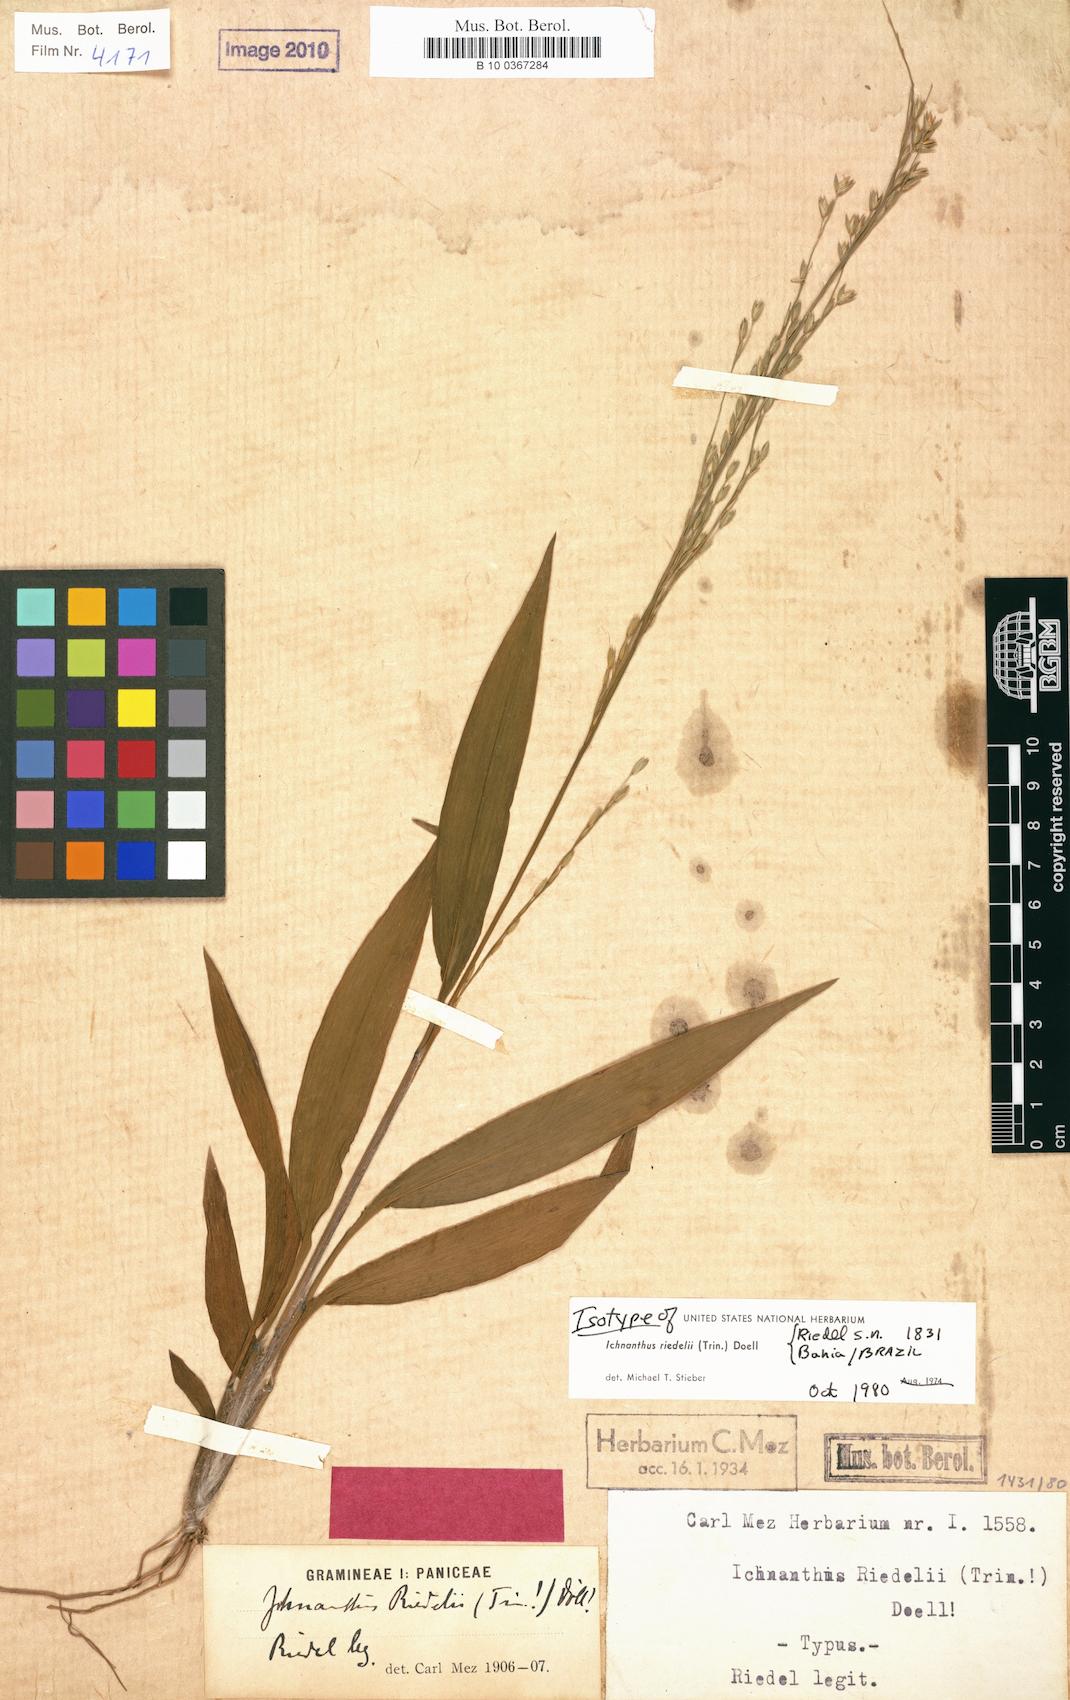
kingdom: Plantae
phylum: Tracheophyta
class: Liliopsida
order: Poales
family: Poaceae
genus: Ichnanthus
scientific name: Ichnanthus riedelii
